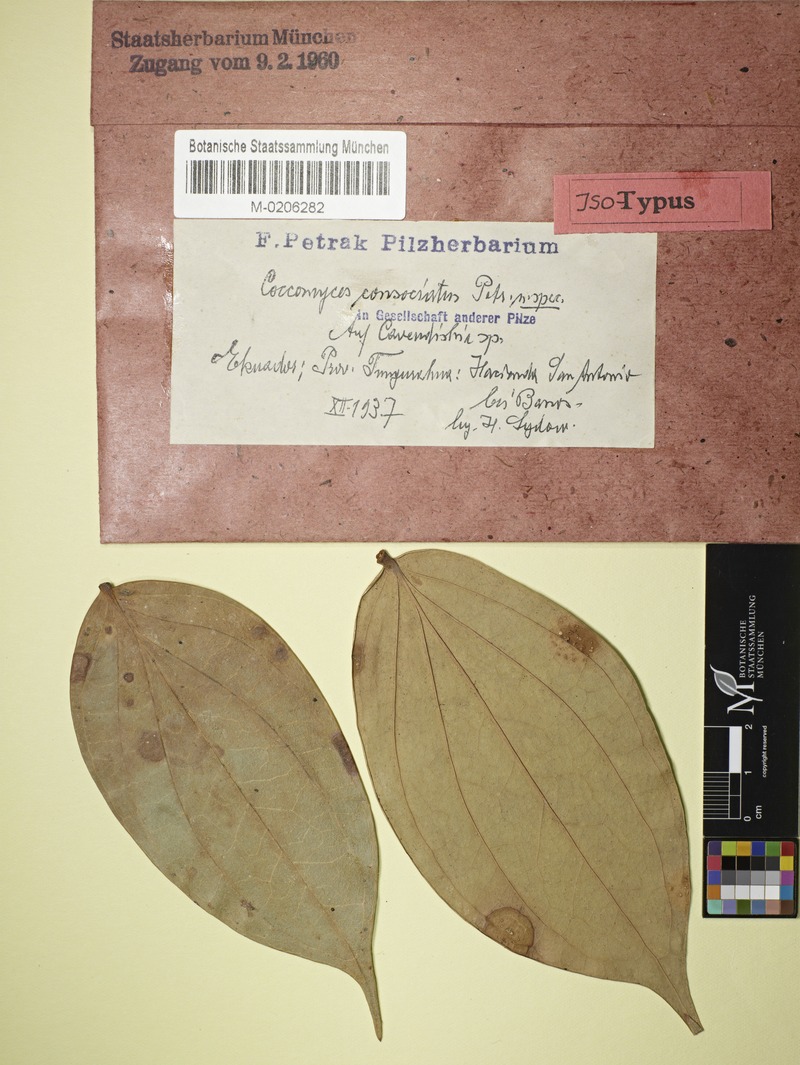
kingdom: Fungi
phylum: Ascomycota
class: Leotiomycetes
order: Rhytismatales
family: Rhytismataceae
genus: Coccomyces
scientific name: Coccomyces consociatus
